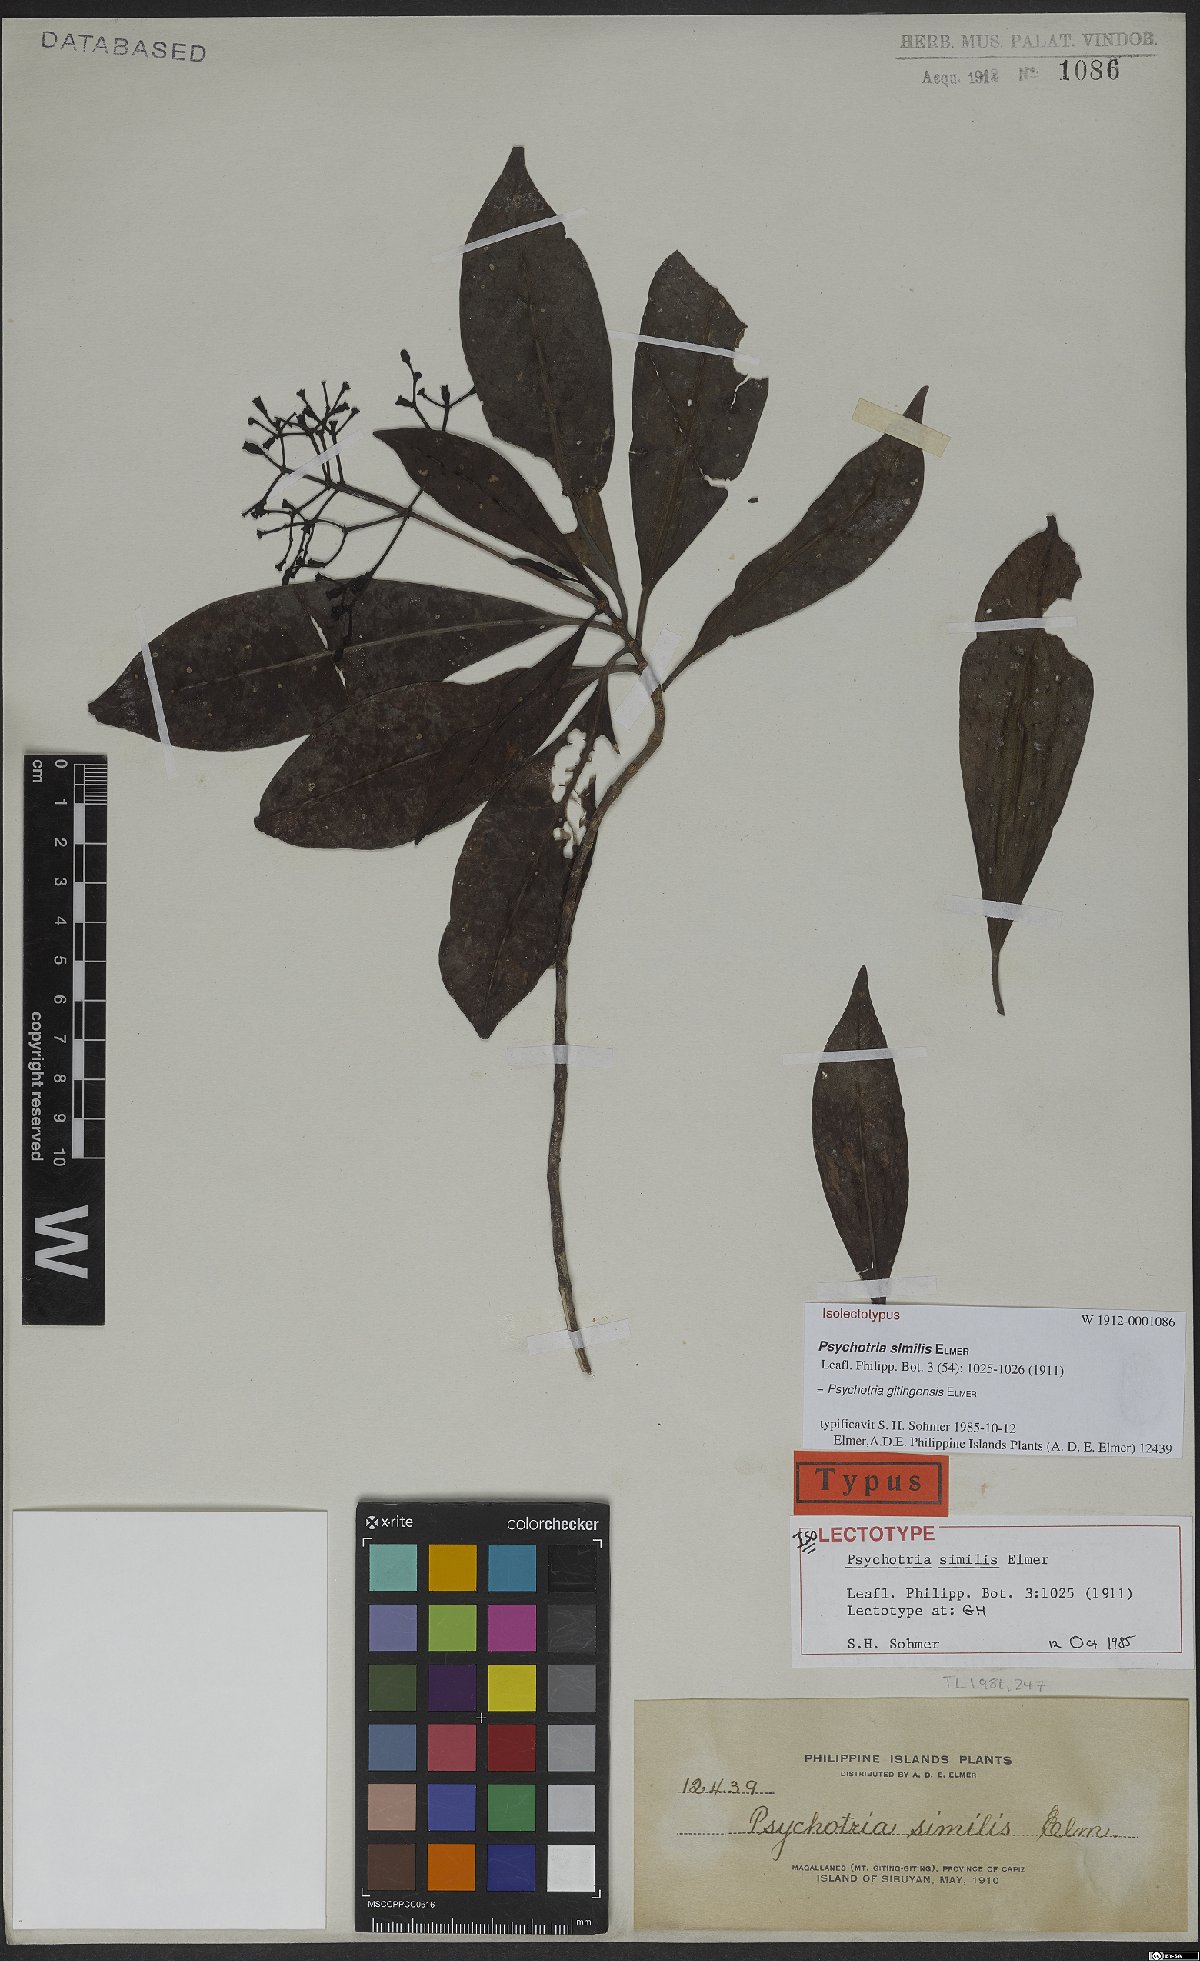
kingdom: Plantae
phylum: Tracheophyta
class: Magnoliopsida
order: Gentianales
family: Rubiaceae
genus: Psychotria
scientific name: Psychotria gitingensis
